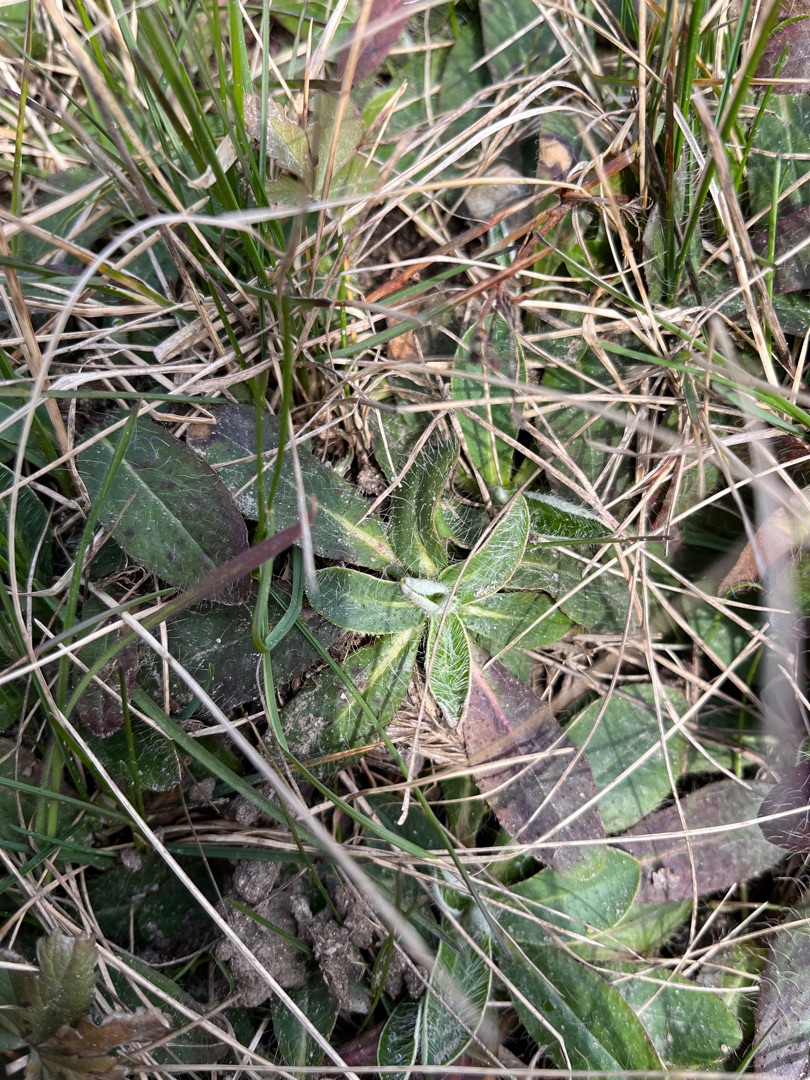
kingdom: Plantae
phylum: Tracheophyta
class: Magnoliopsida
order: Asterales
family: Asteraceae
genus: Pilosella
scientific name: Pilosella officinarum
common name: Håret høgeurt
